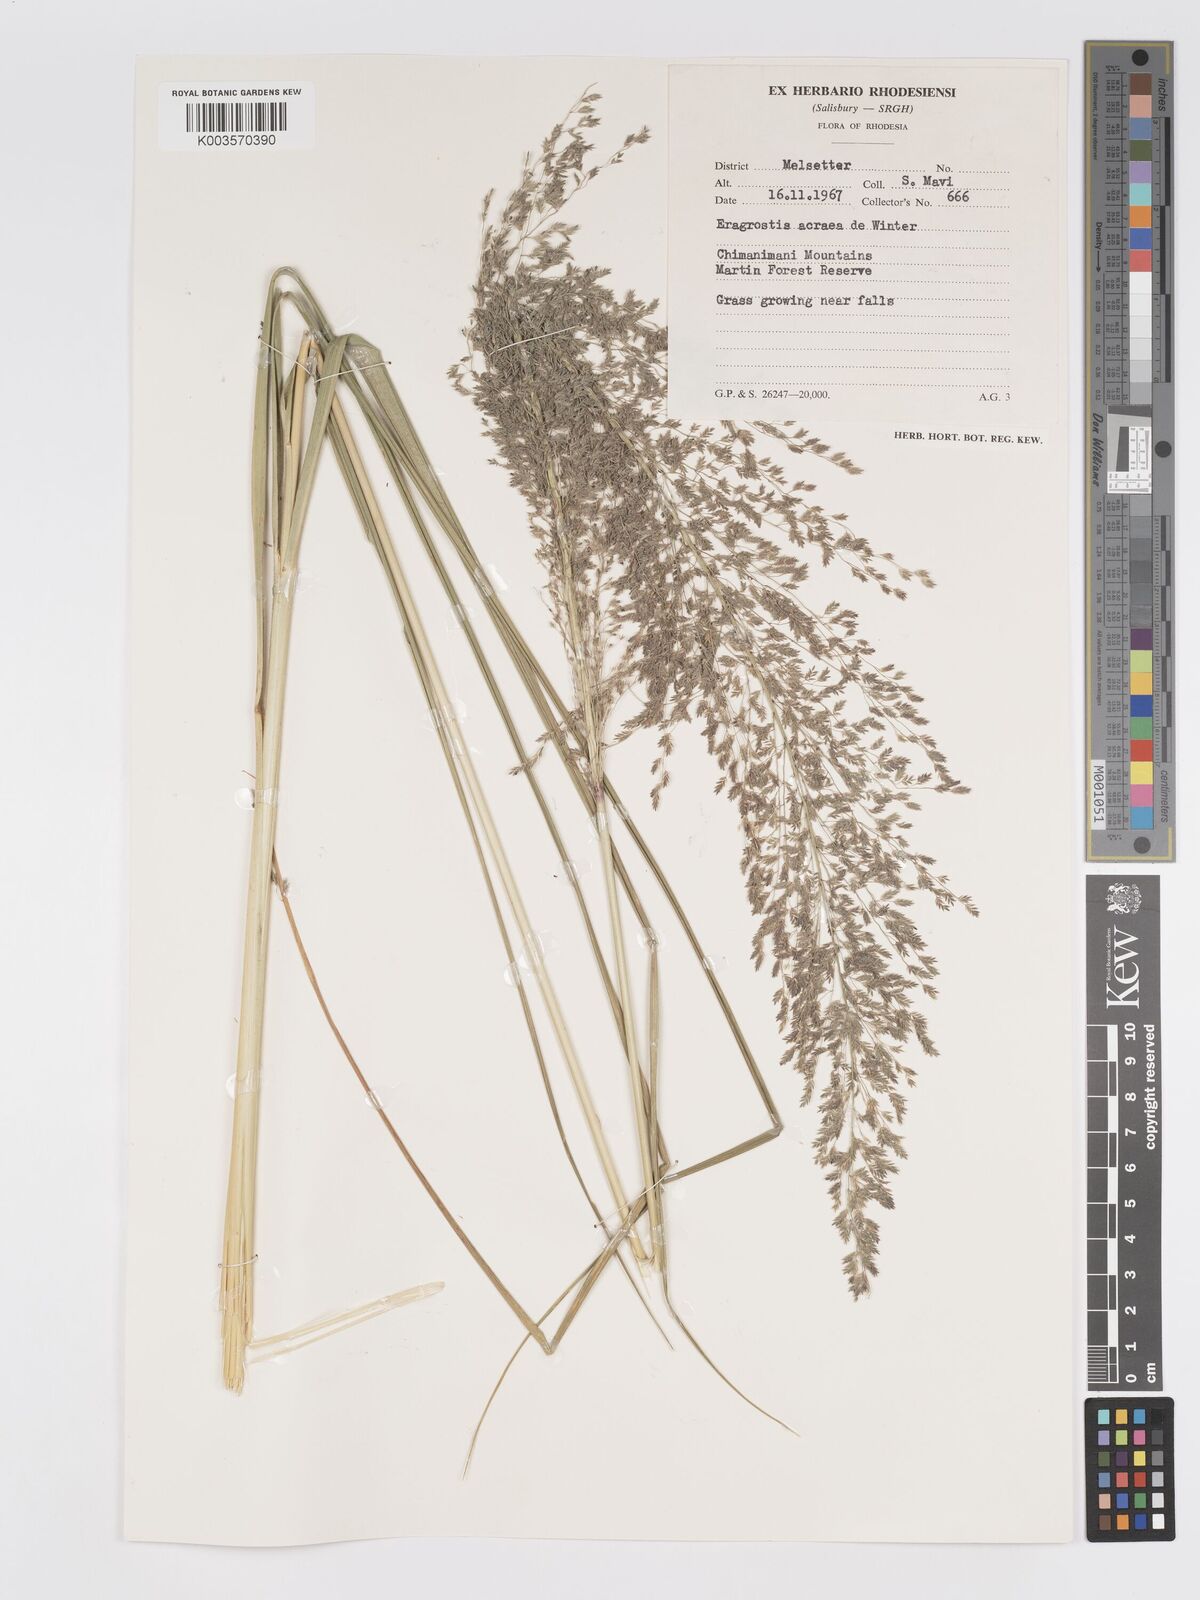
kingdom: Plantae
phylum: Tracheophyta
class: Liliopsida
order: Poales
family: Poaceae
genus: Eragrostis
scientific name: Eragrostis acraea
